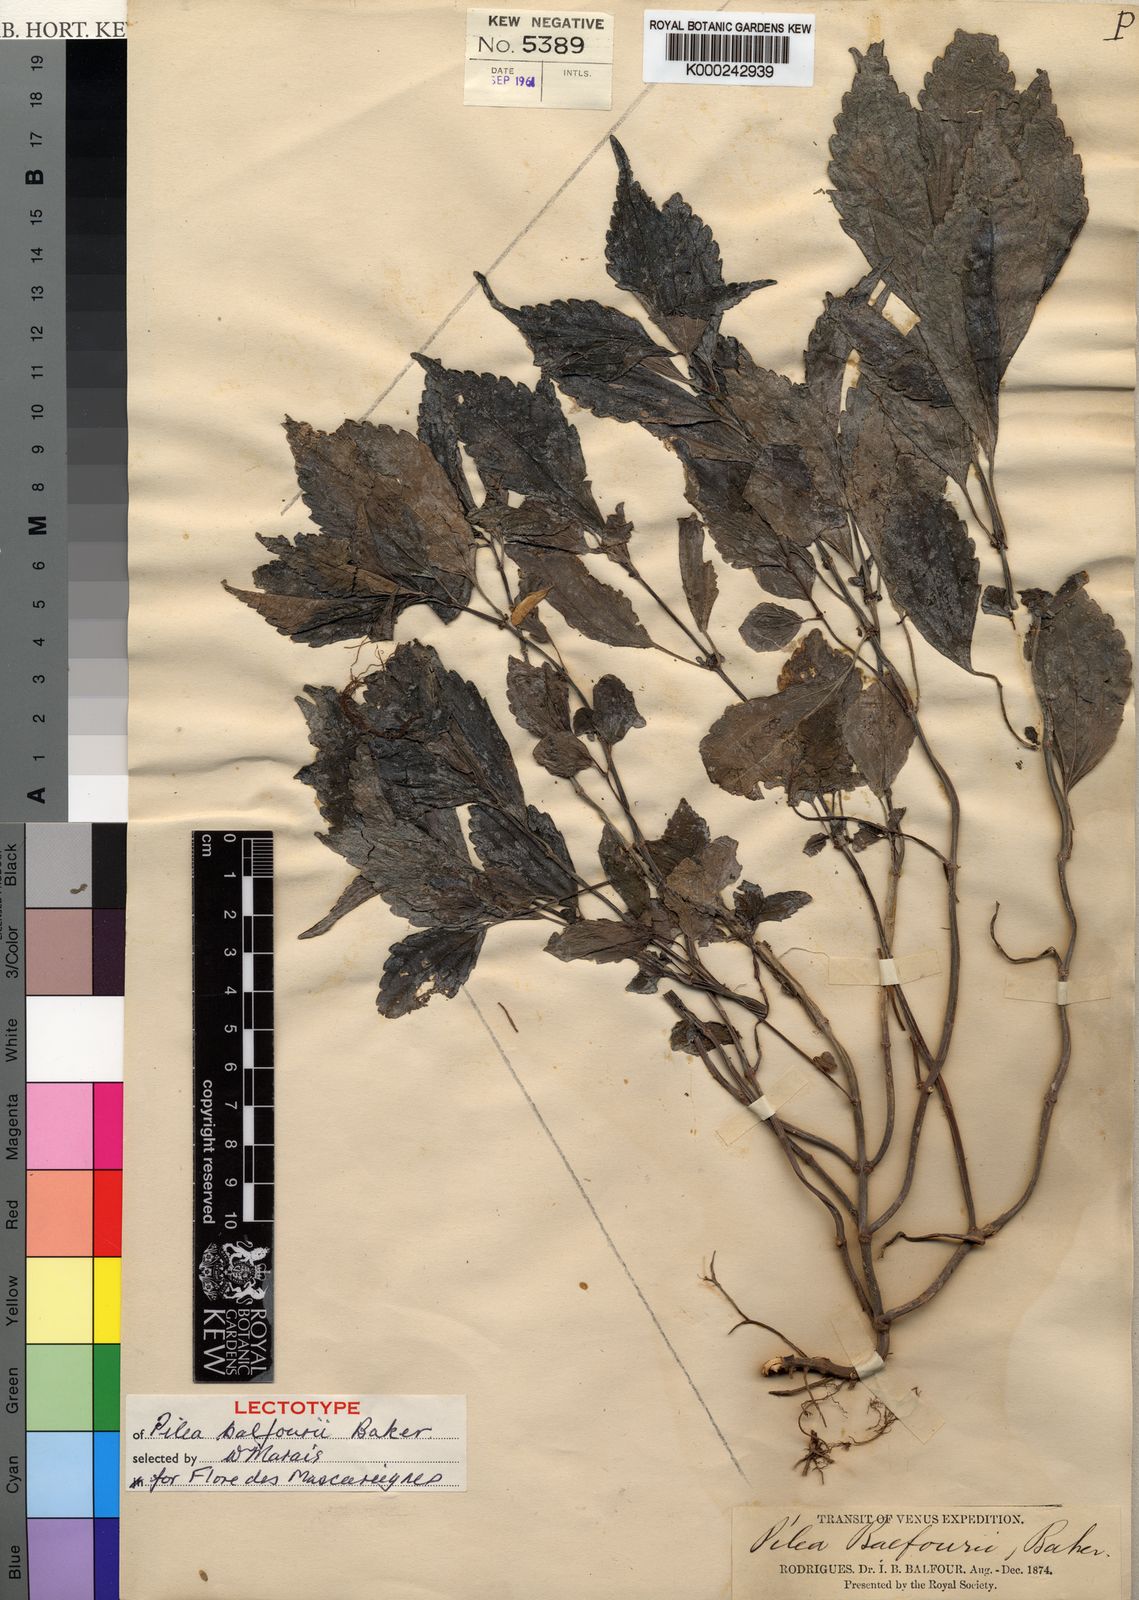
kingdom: Plantae
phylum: Tracheophyta
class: Magnoliopsida
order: Rosales
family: Urticaceae
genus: Pilea
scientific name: Pilea balfourii
